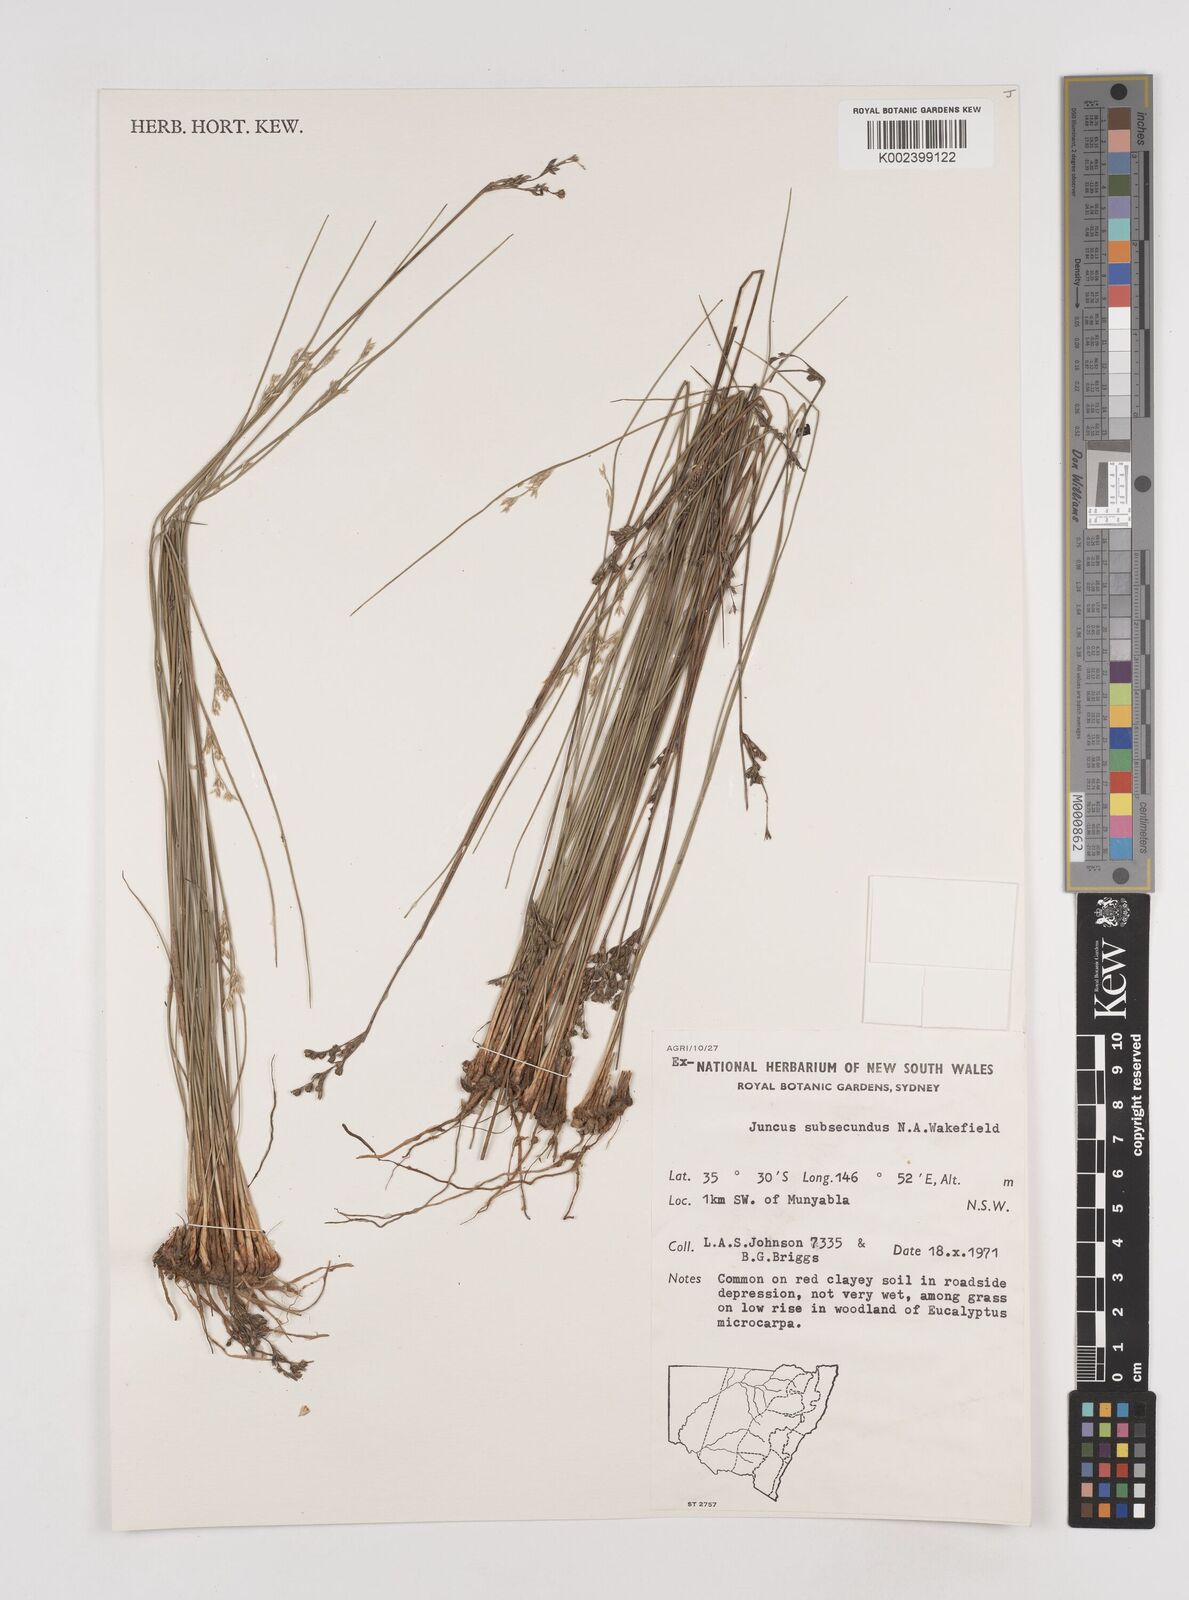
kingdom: Plantae
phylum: Tracheophyta
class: Liliopsida
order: Poales
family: Juncaceae
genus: Juncus
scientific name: Juncus subsecundus
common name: Fingered rush
